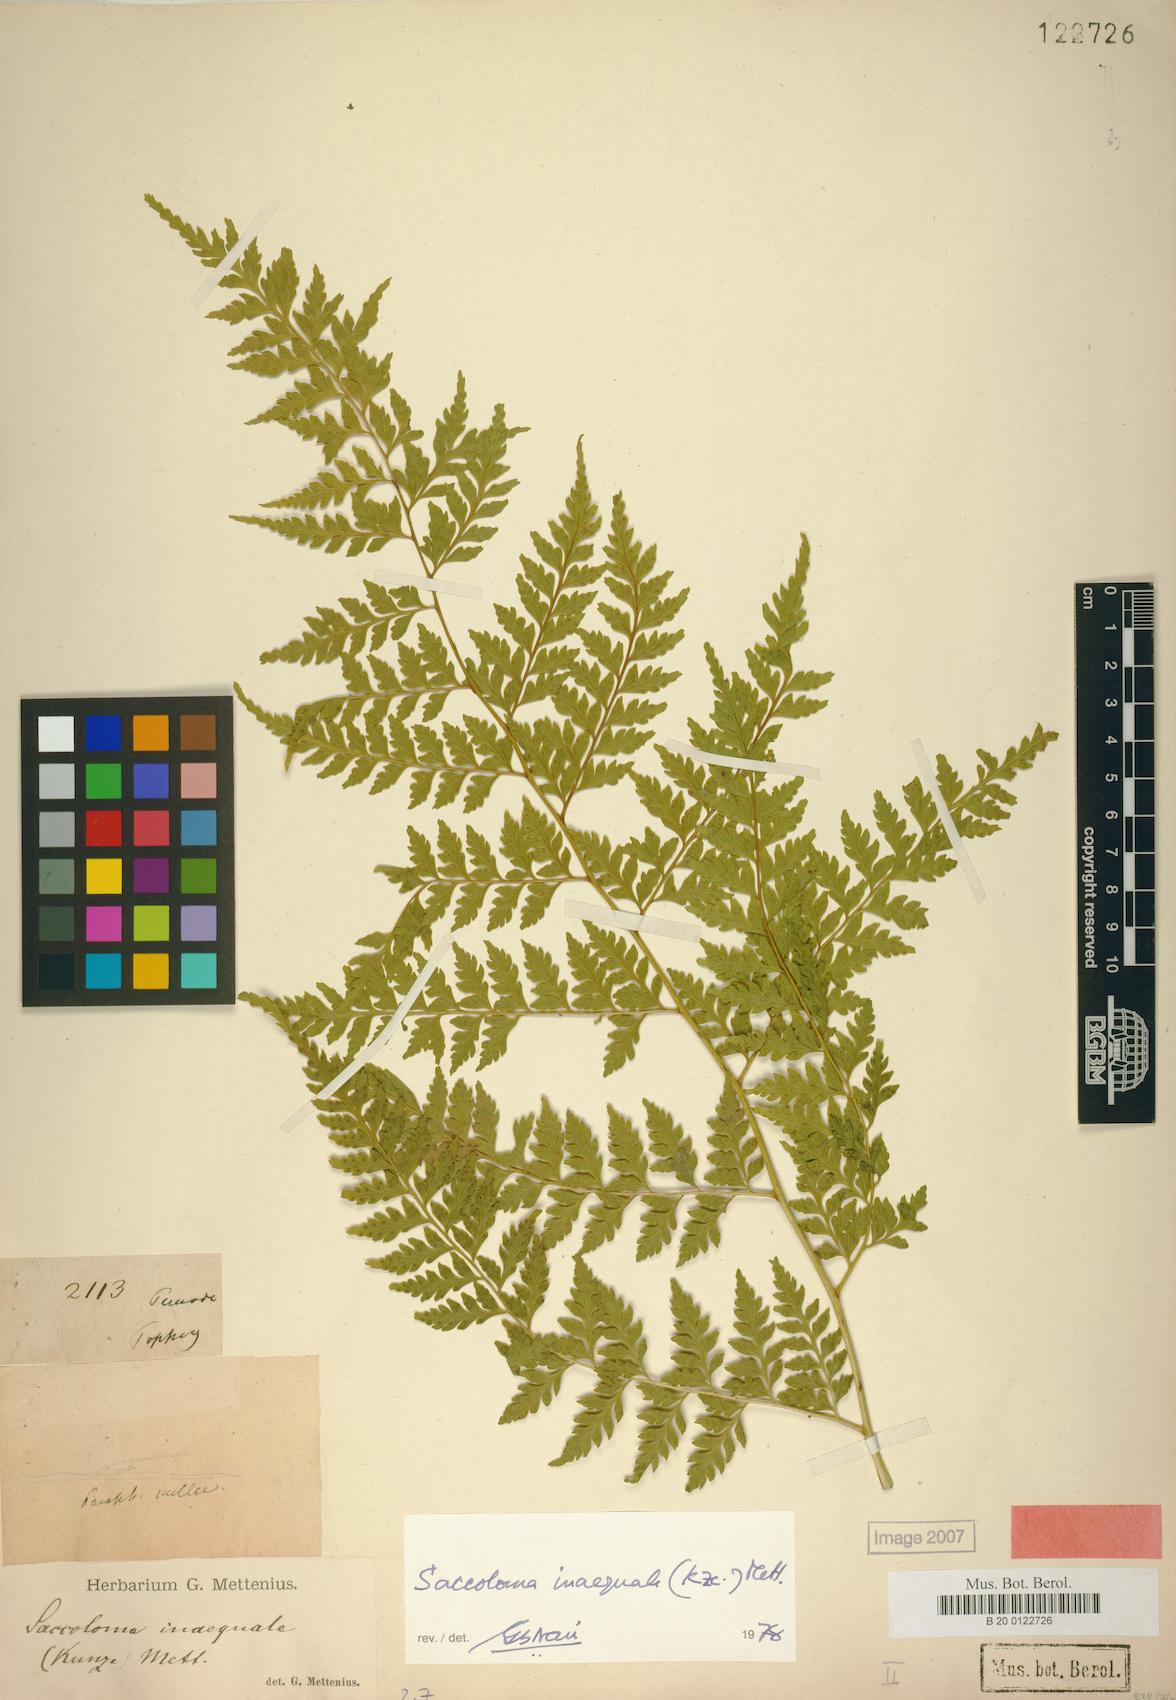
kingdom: Plantae
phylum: Tracheophyta
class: Polypodiopsida
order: Polypodiales
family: Saccolomataceae
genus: Saccoloma
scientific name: Saccoloma inaequale
